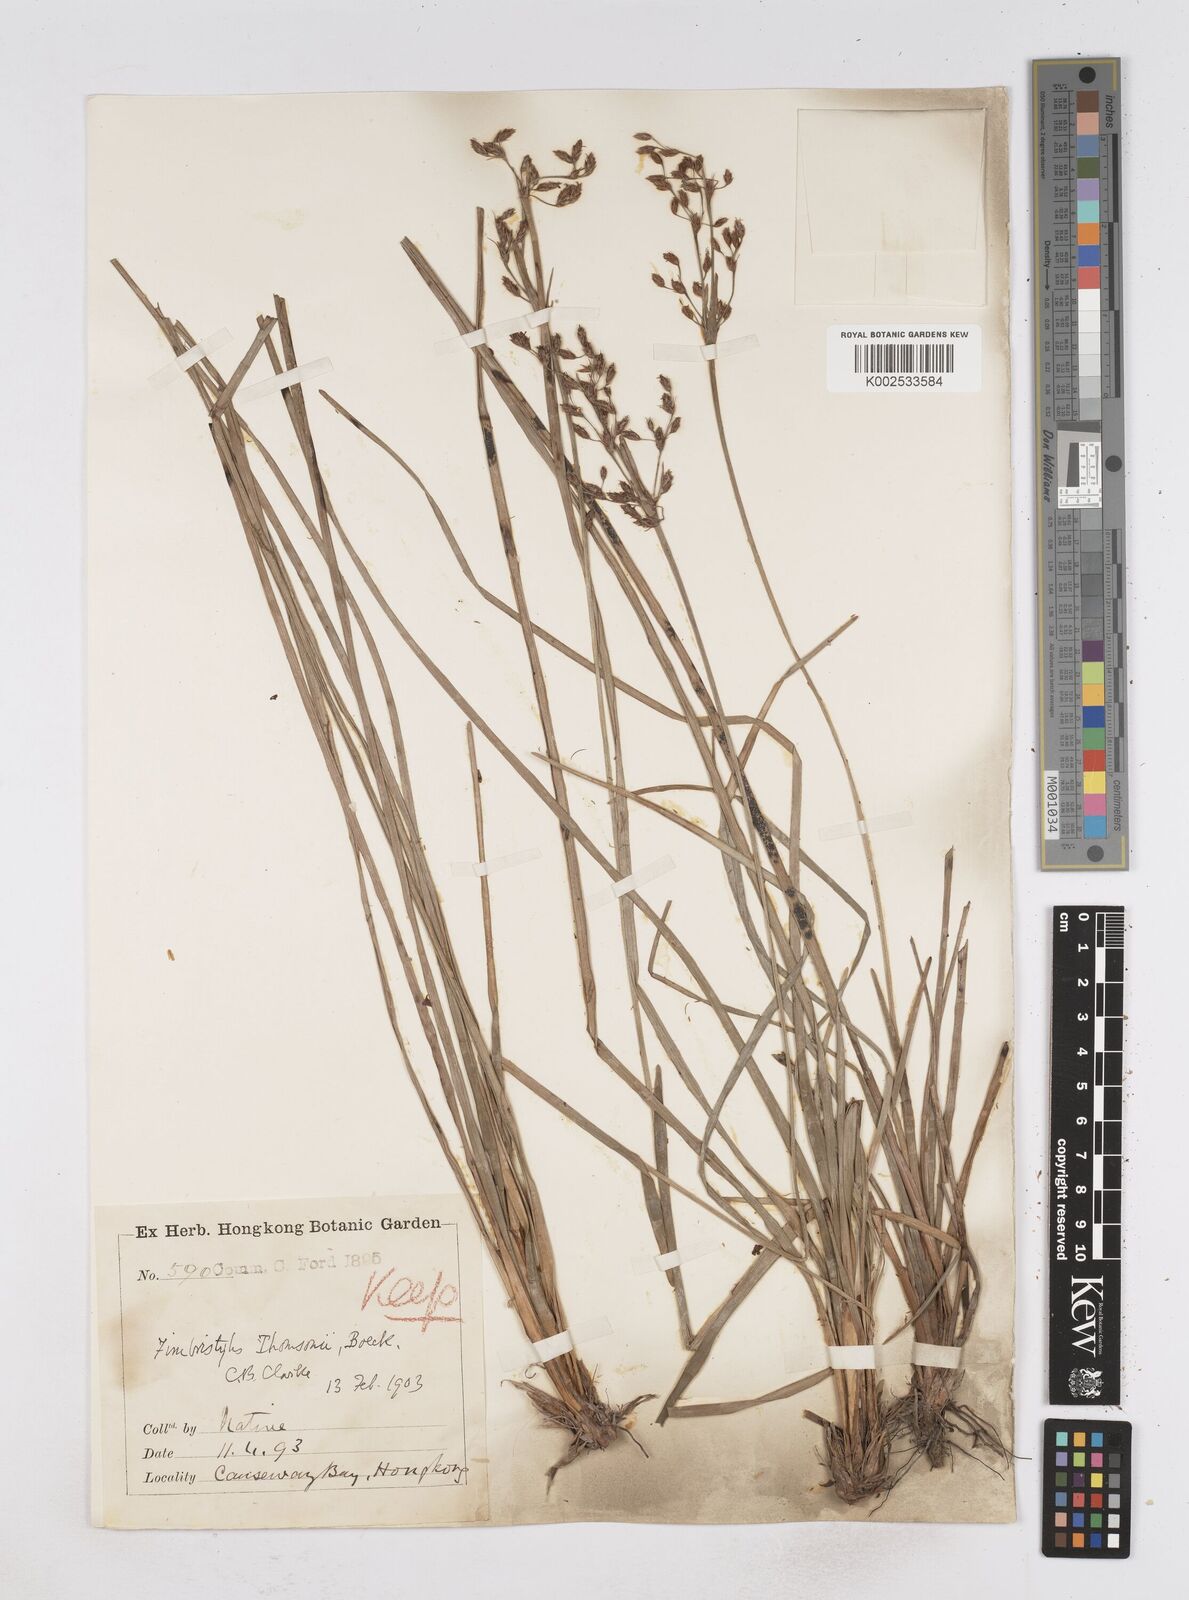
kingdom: Plantae
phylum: Tracheophyta
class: Liliopsida
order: Poales
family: Cyperaceae
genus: Fimbristylis
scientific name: Fimbristylis thomsonii
